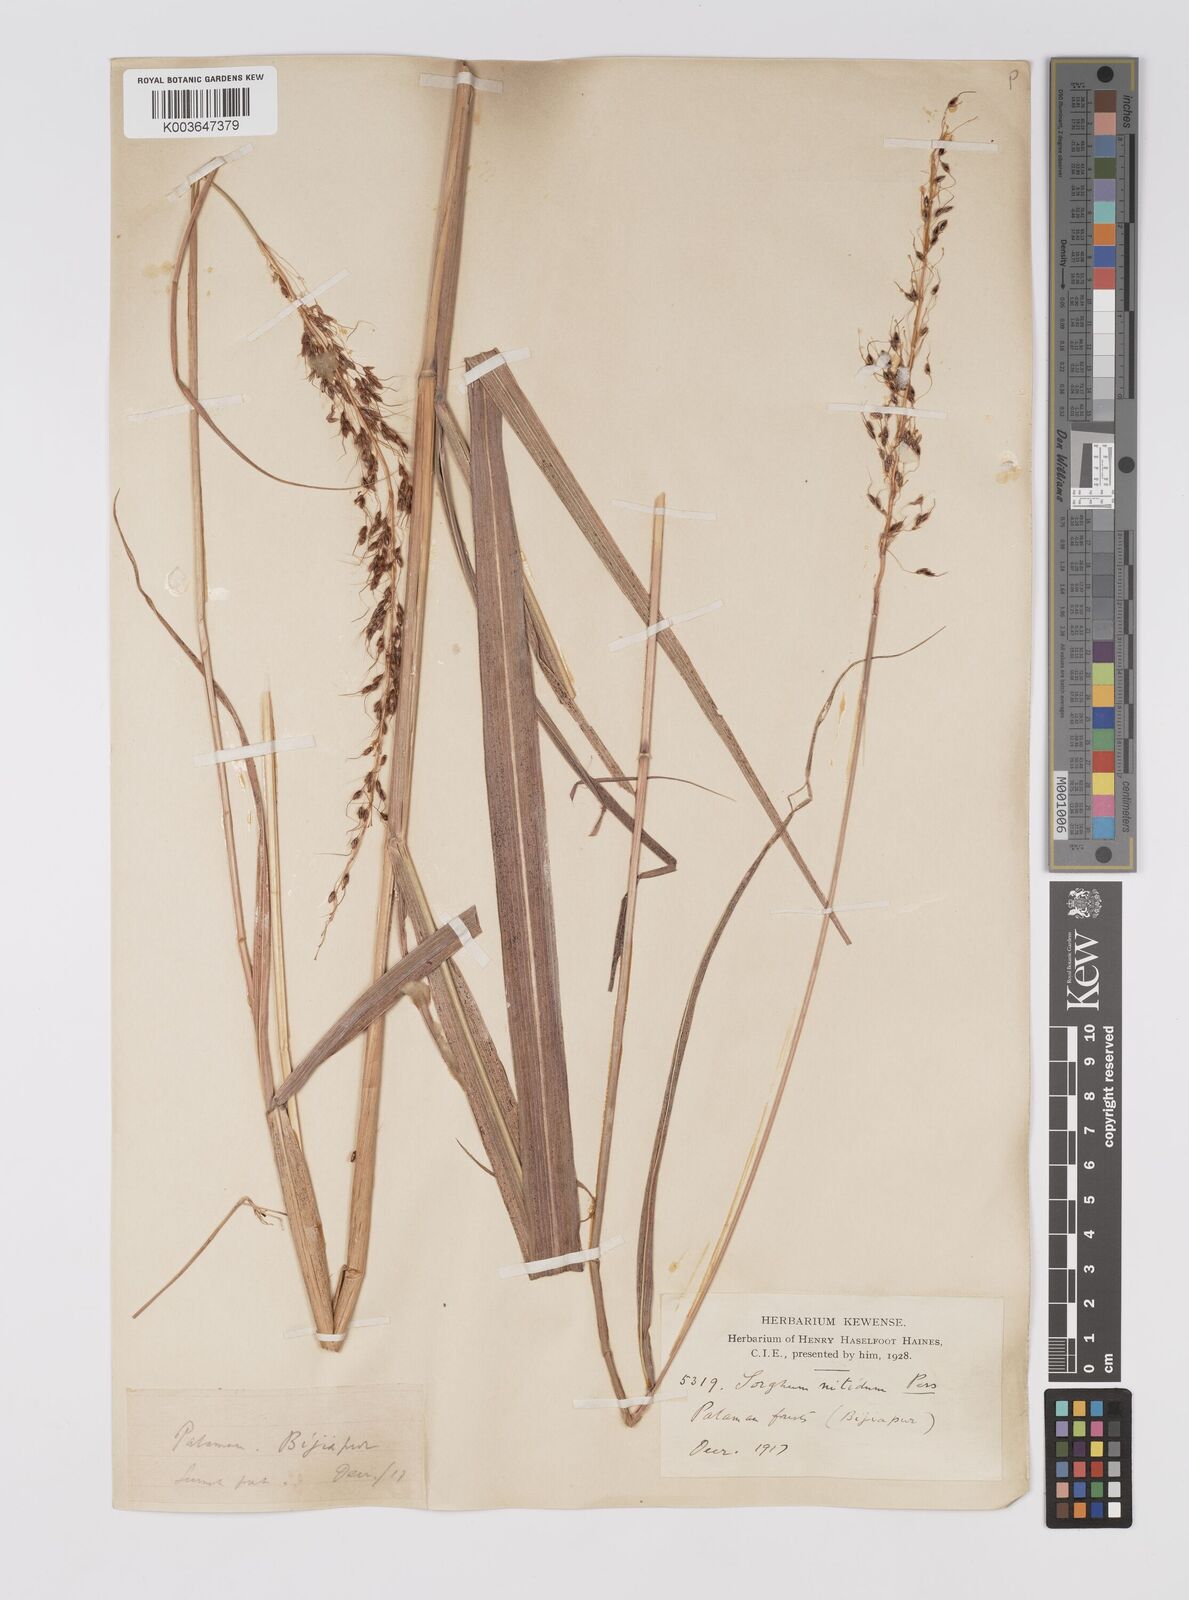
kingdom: Plantae
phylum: Tracheophyta
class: Liliopsida
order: Poales
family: Poaceae
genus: Sorghum
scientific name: Sorghum nitidum
